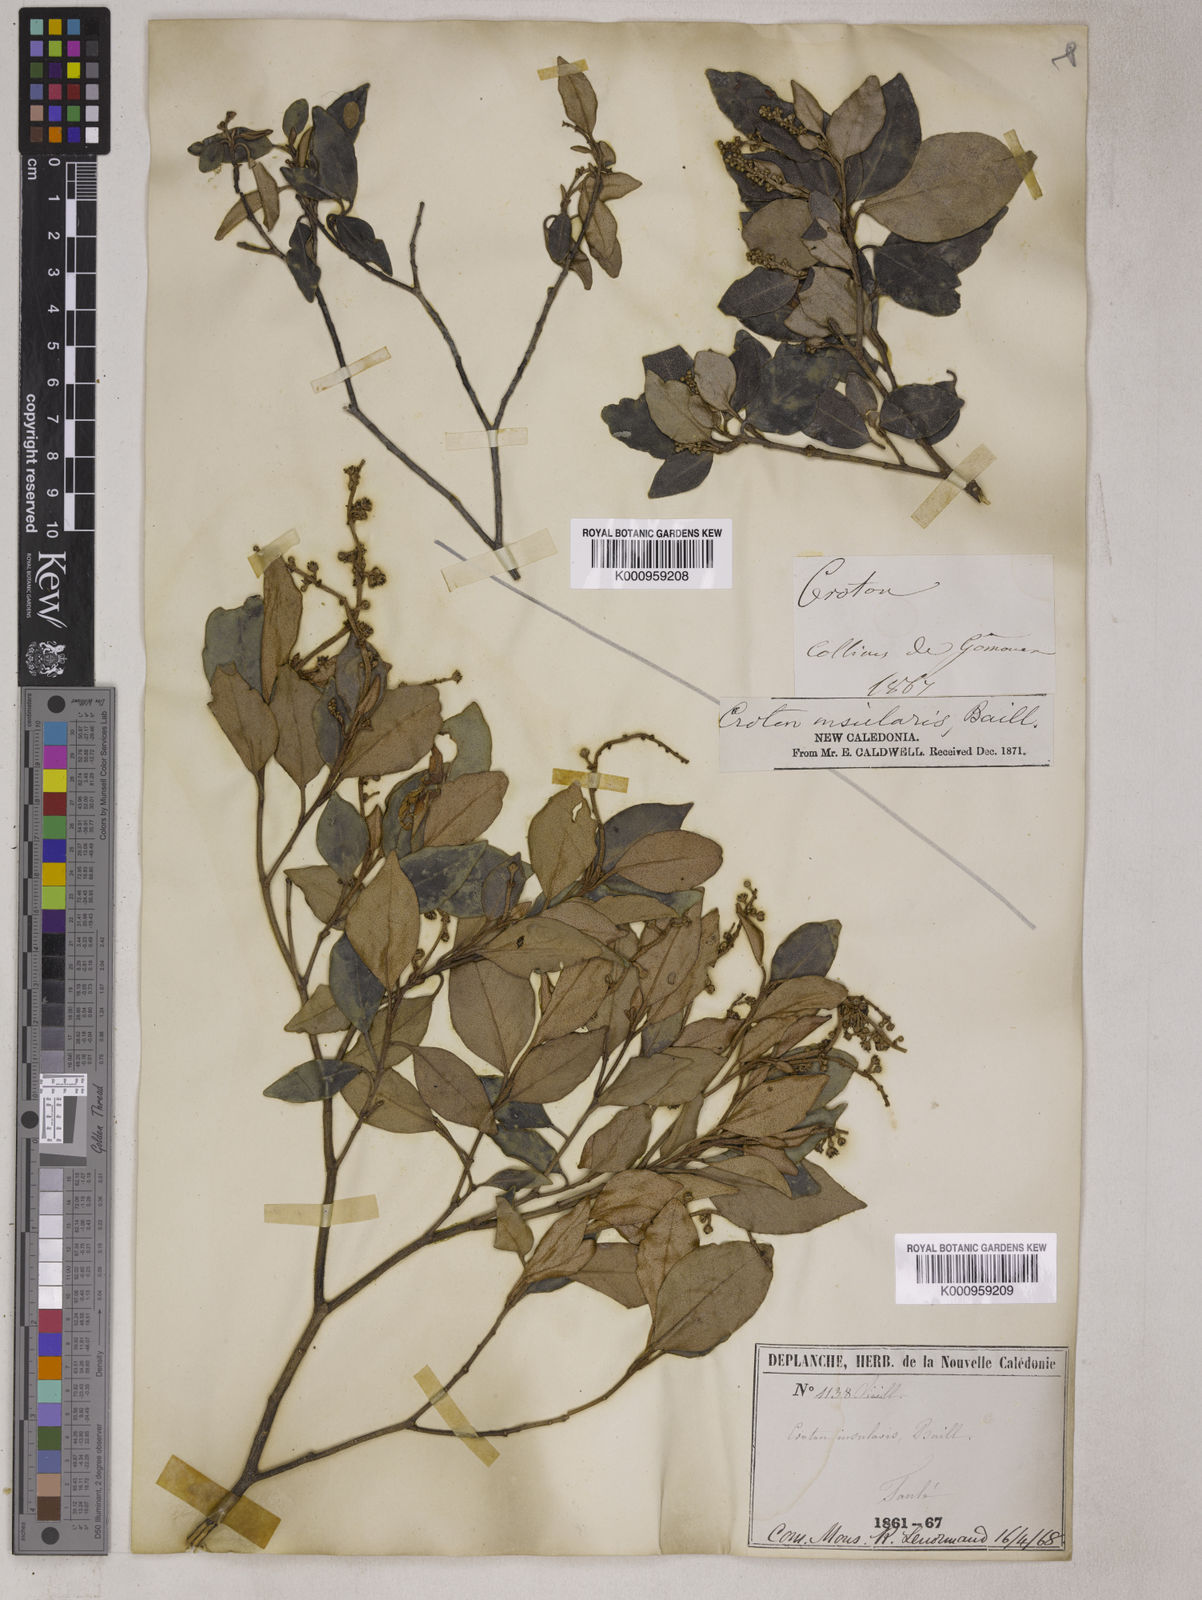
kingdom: Plantae
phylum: Tracheophyta
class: Magnoliopsida
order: Malpighiales
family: Euphorbiaceae
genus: Croton
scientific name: Croton insularis
